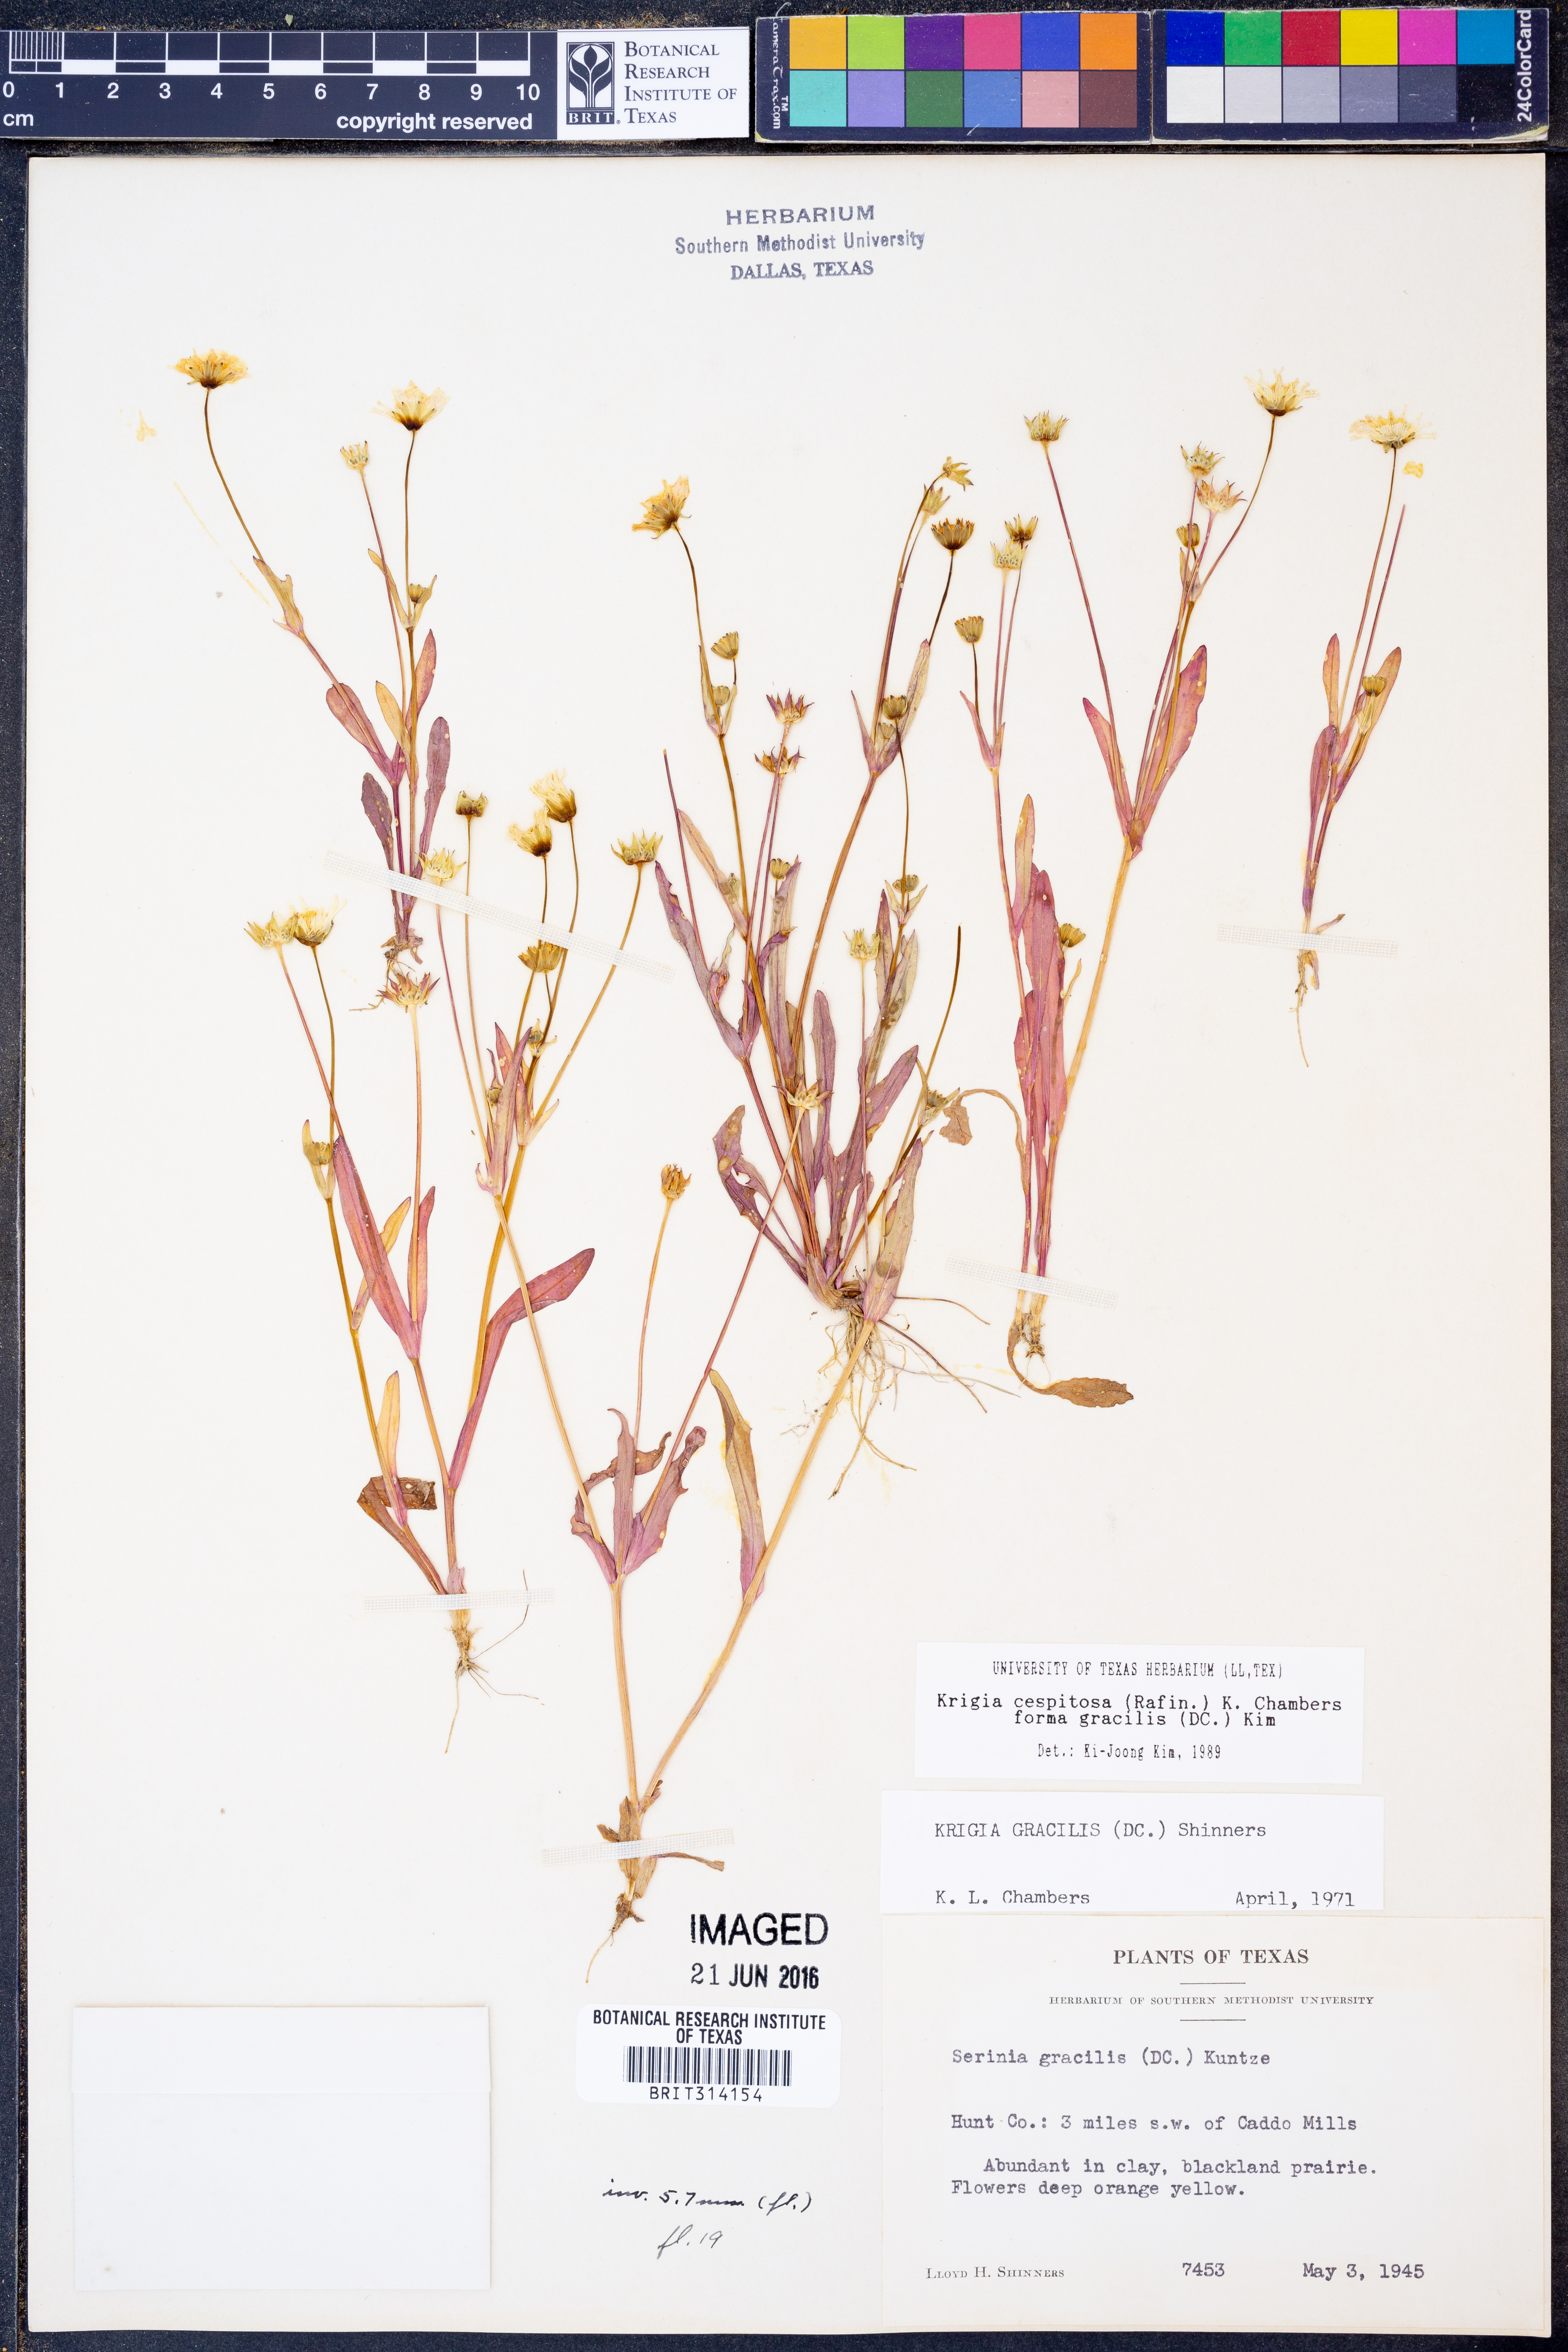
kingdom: Plantae
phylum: Tracheophyta
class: Magnoliopsida
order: Asterales
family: Asteraceae
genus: Krigia
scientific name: Krigia cespitosa
